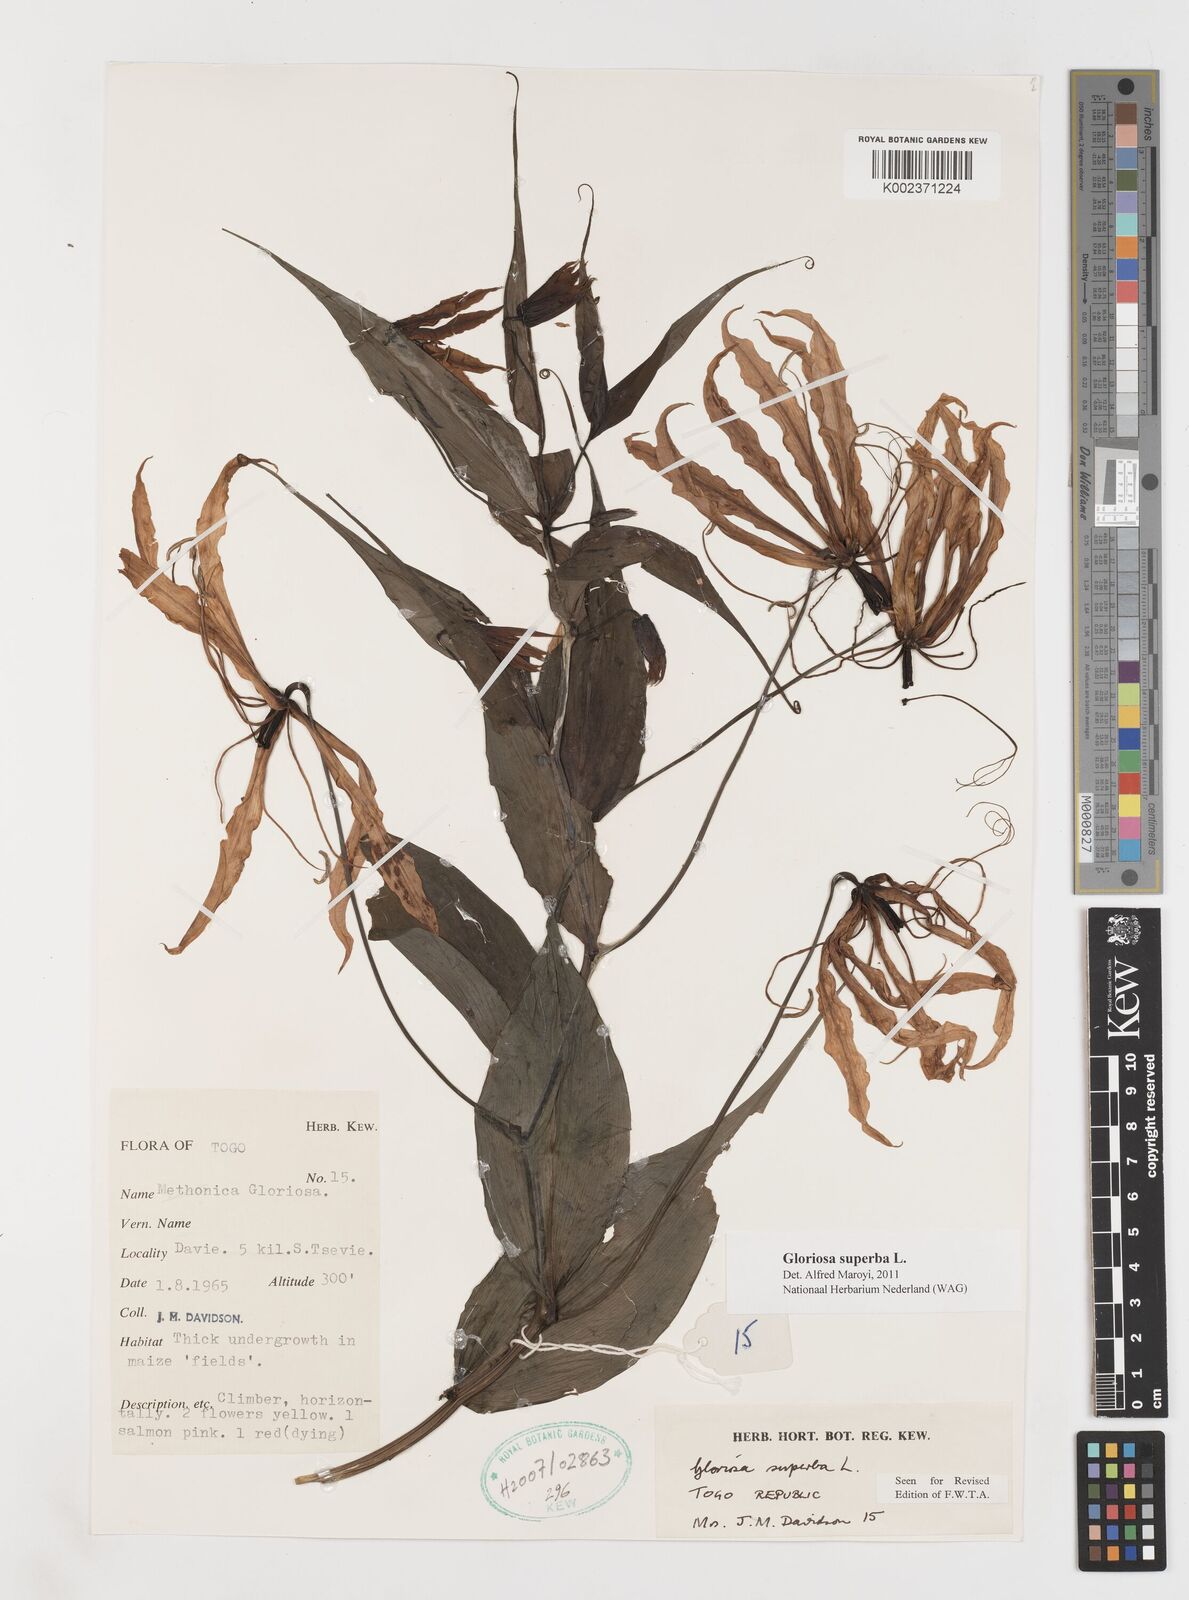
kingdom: Plantae
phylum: Tracheophyta
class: Liliopsida
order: Liliales
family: Colchicaceae
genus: Gloriosa
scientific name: Gloriosa superba
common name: Flame lily
